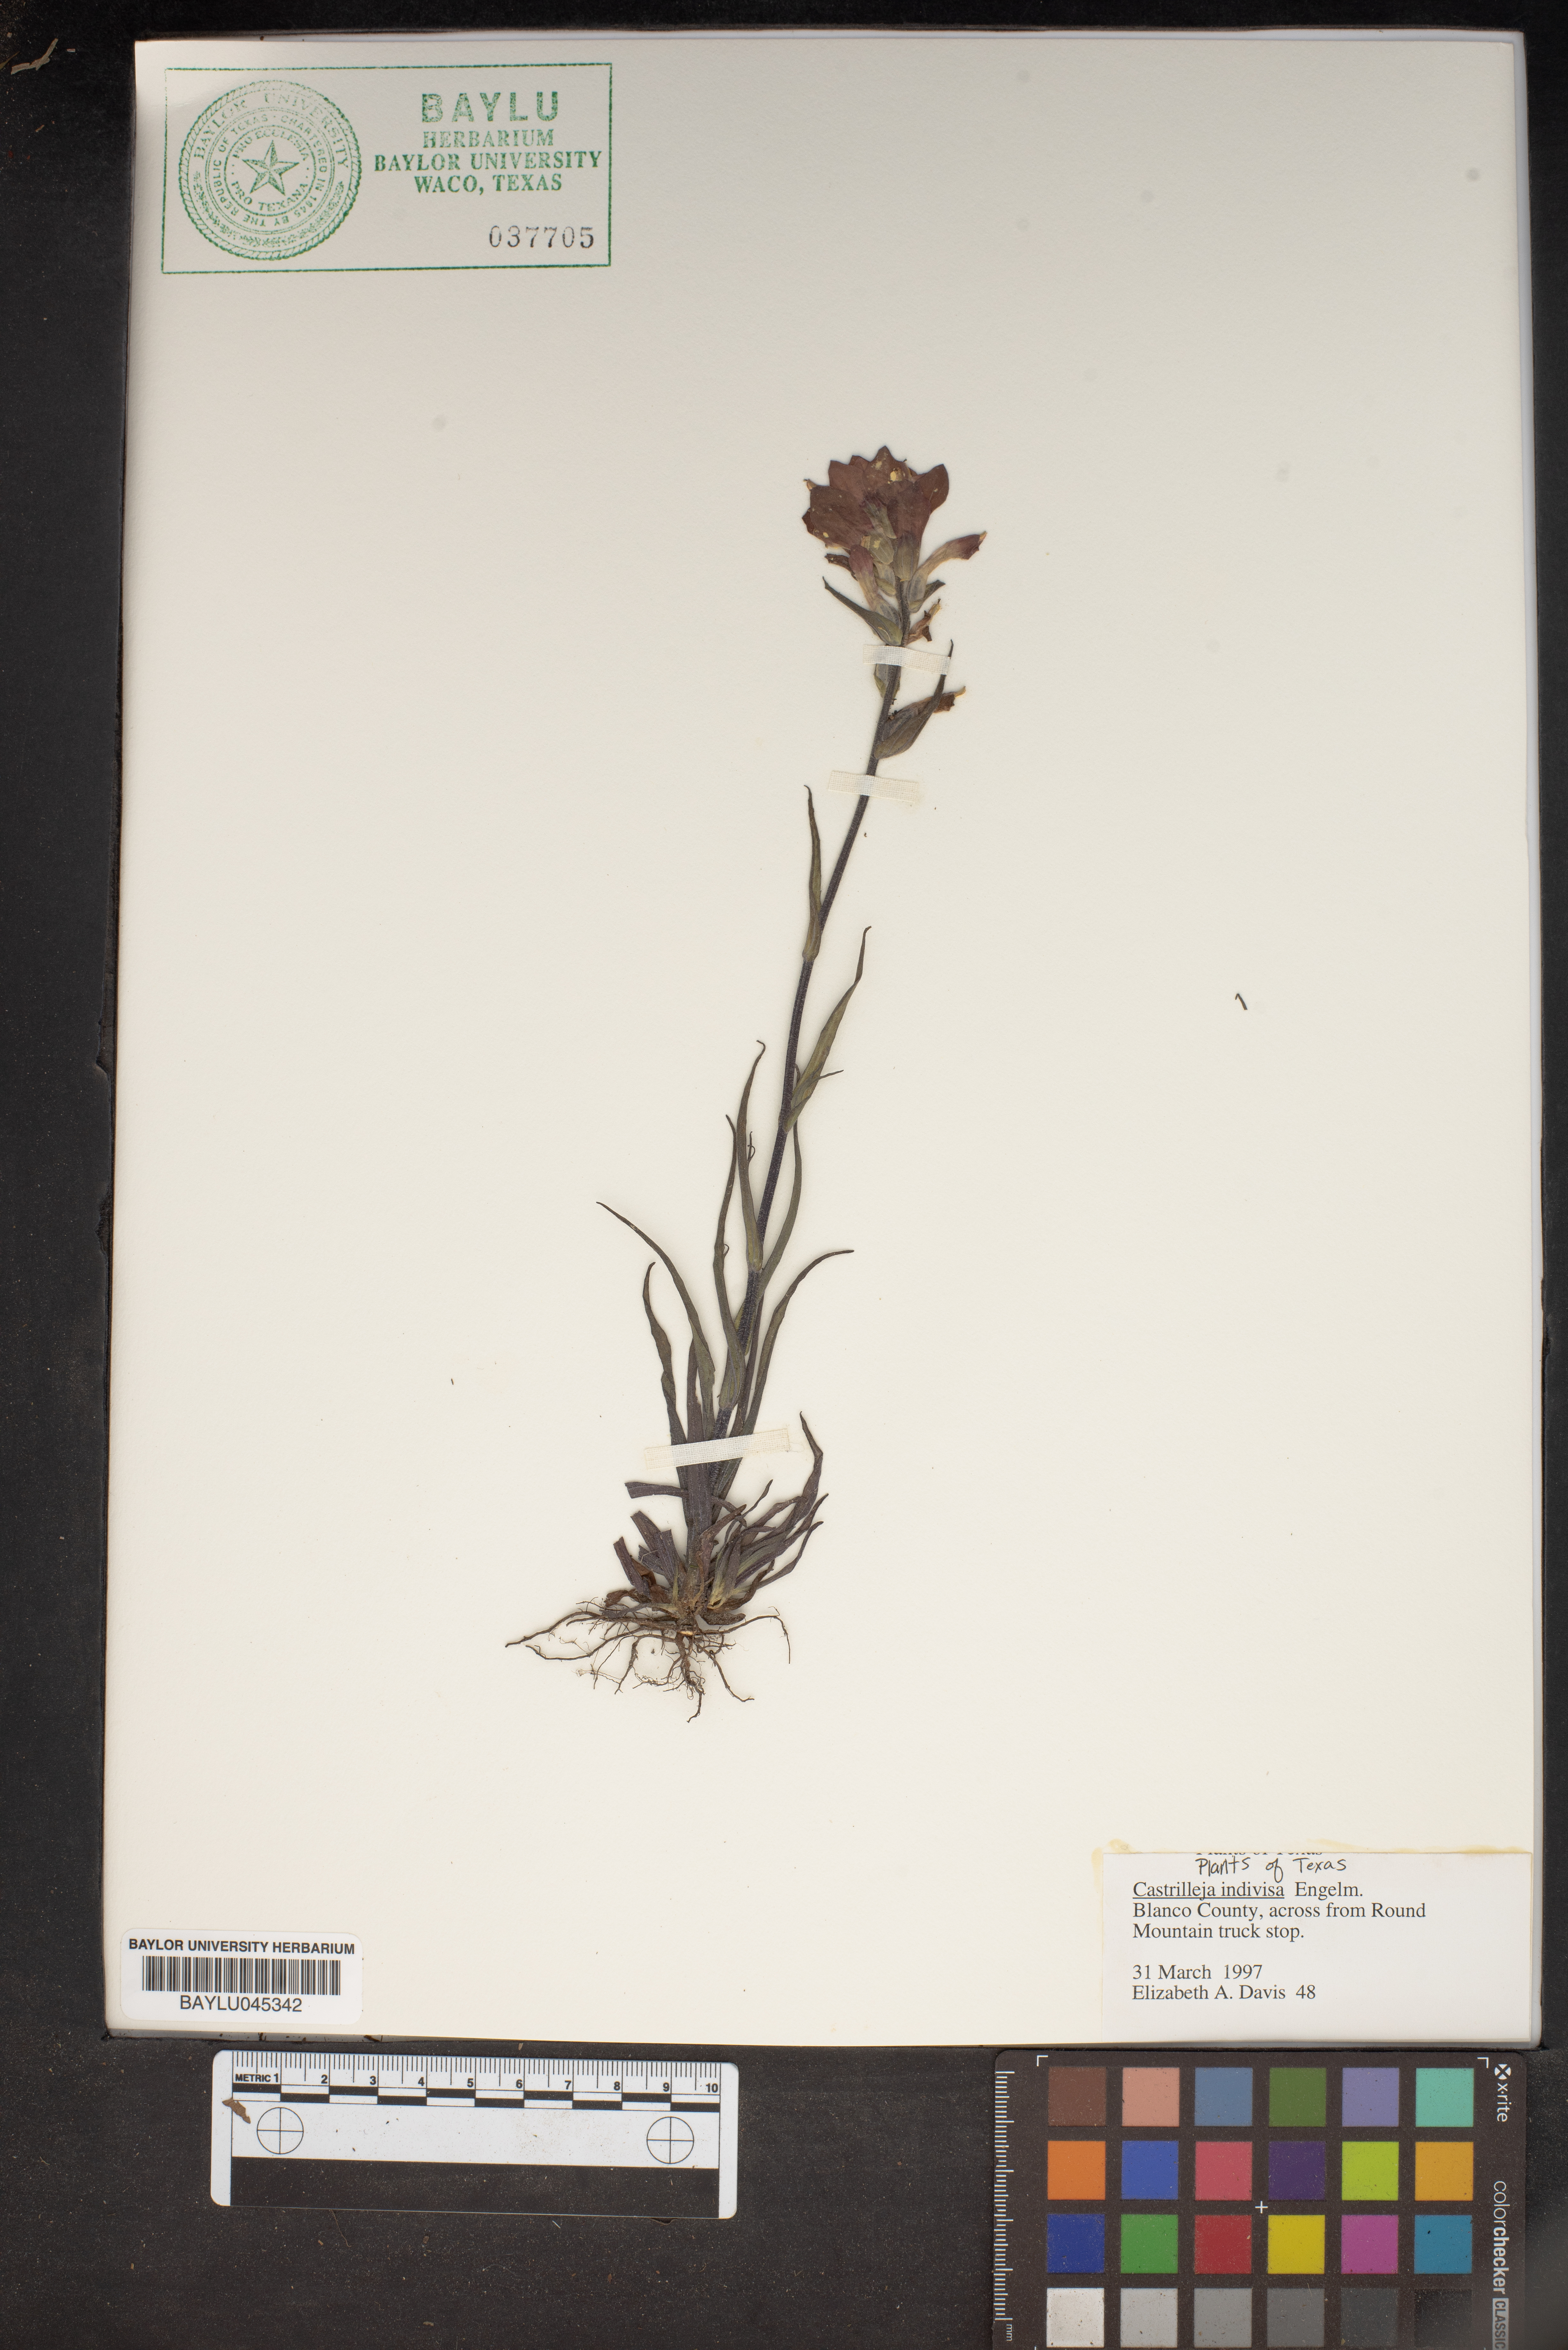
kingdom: Plantae
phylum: Tracheophyta
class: Magnoliopsida
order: Lamiales
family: Orobanchaceae
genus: Castilleja
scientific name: Castilleja indivisa
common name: Texas paintbrush
